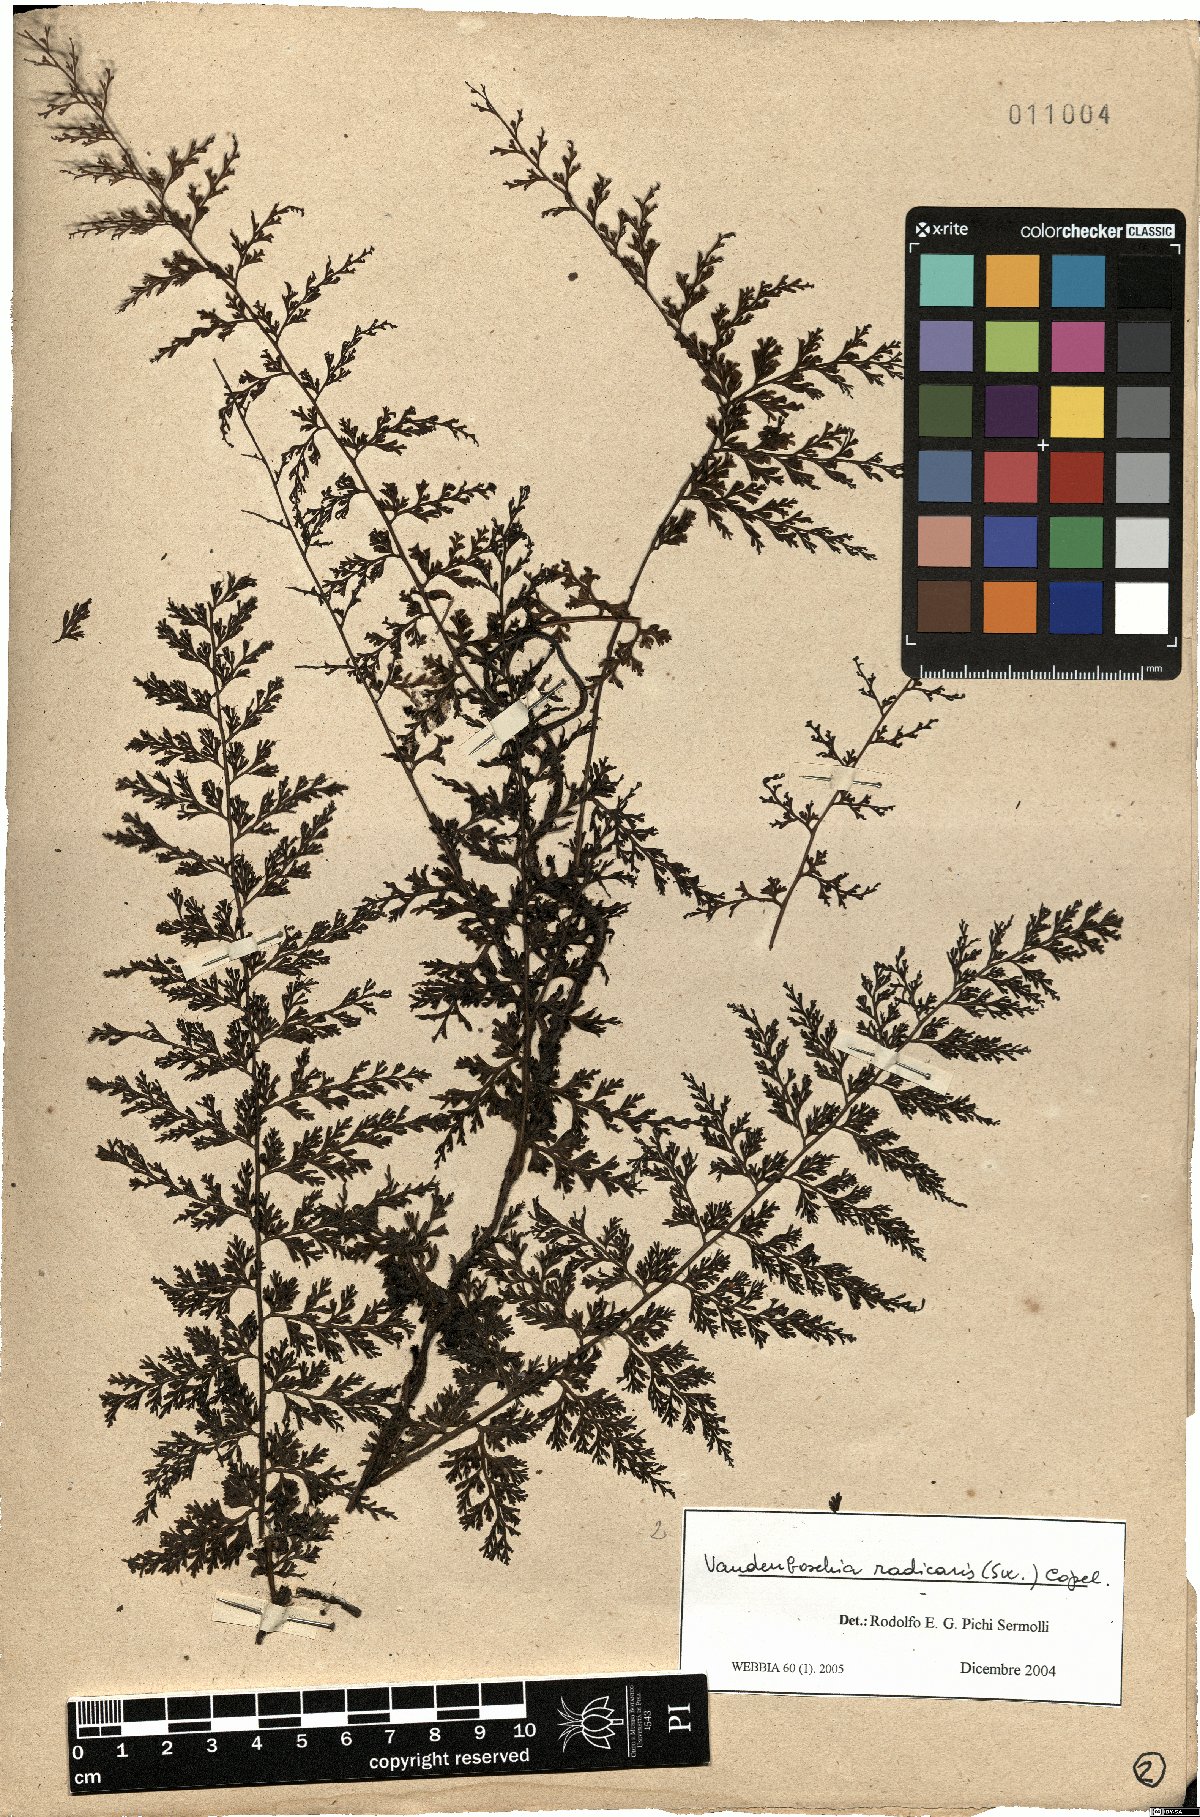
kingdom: Plantae
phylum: Tracheophyta
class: Polypodiopsida
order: Hymenophyllales
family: Hymenophyllaceae
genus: Vandenboschia
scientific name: Vandenboschia radicans
